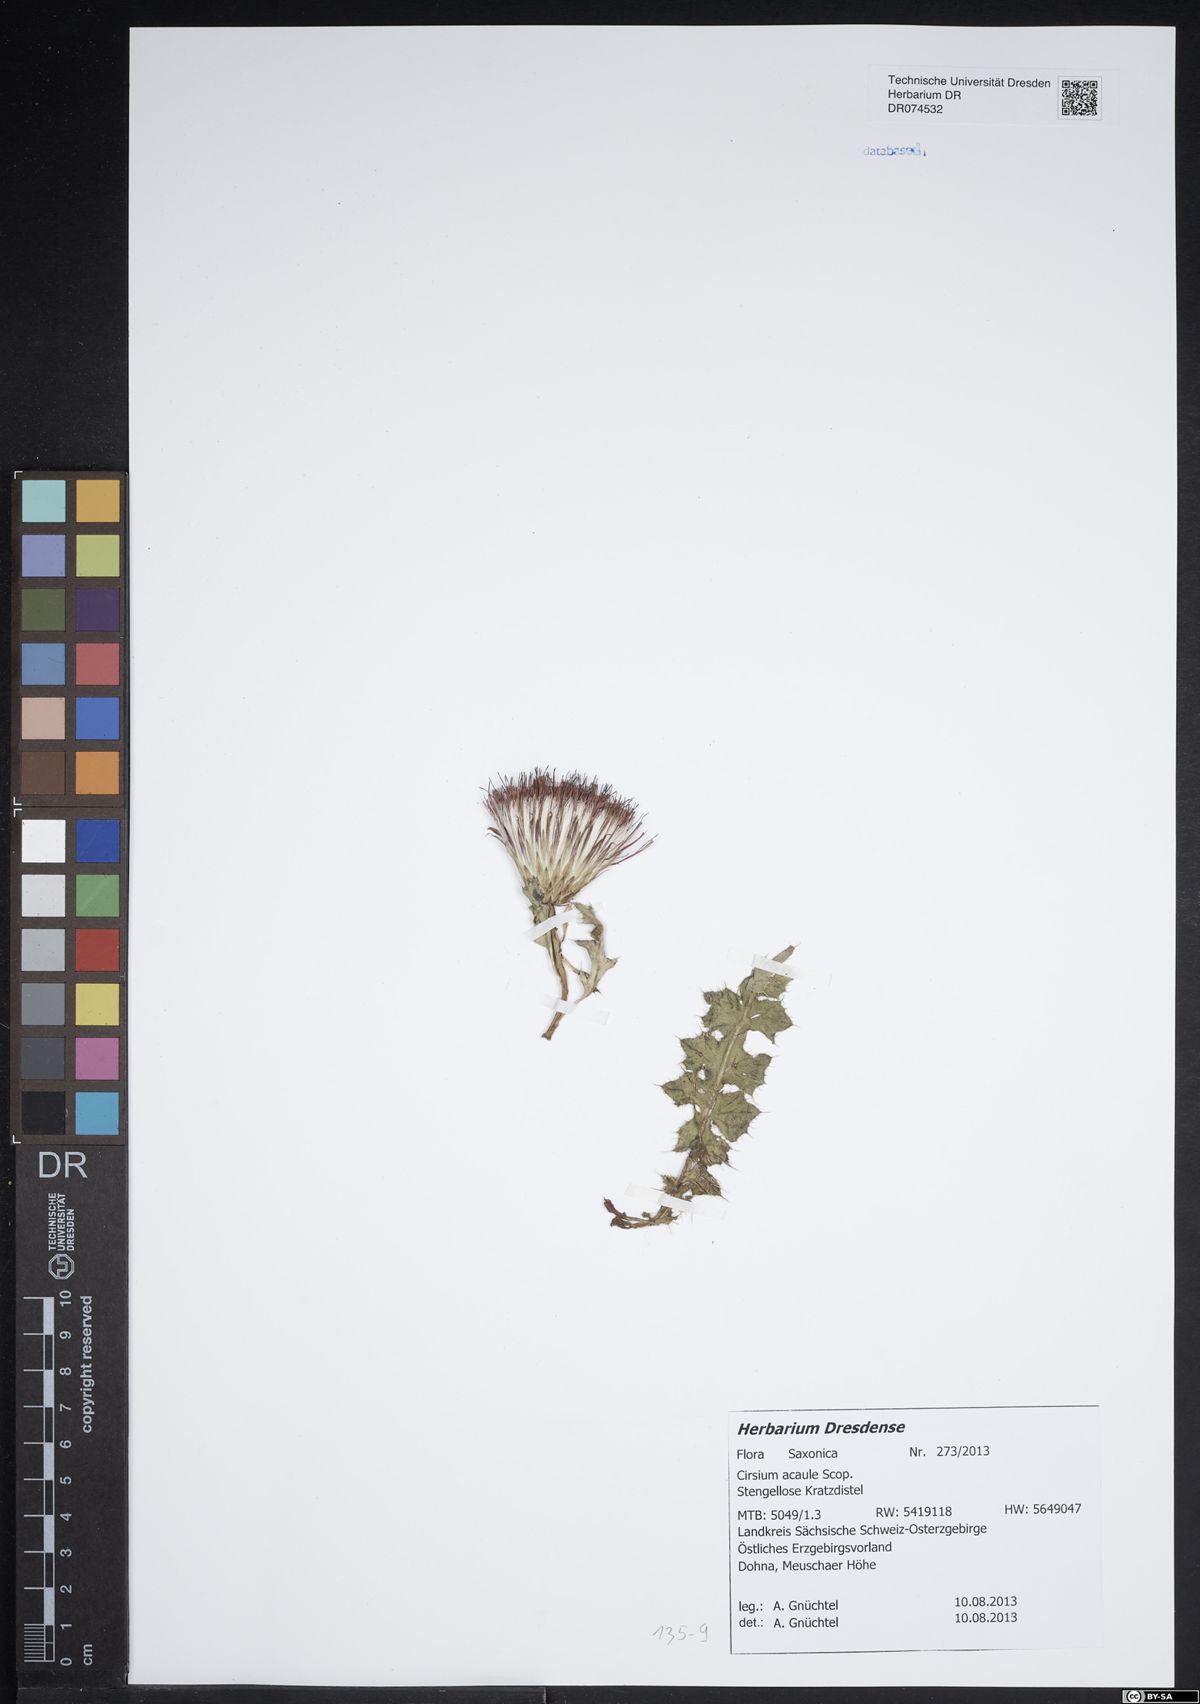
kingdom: Plantae
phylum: Tracheophyta
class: Magnoliopsida
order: Asterales
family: Asteraceae
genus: Cirsium
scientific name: Cirsium acaule
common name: Dwarf thistle
